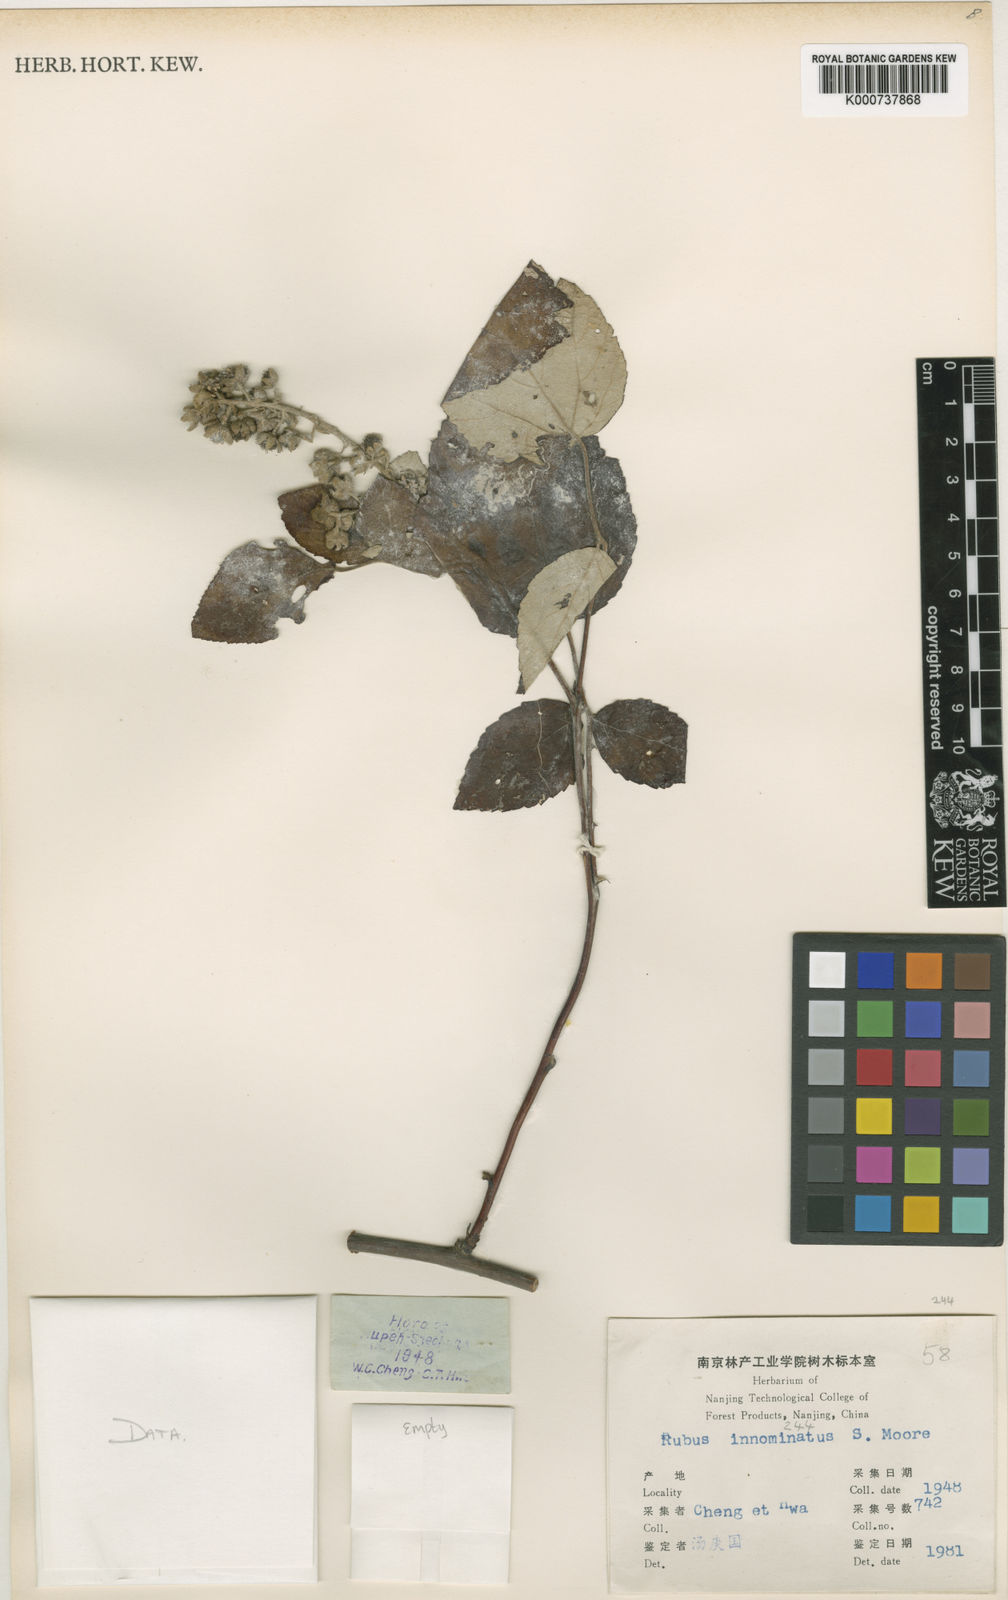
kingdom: Plantae
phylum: Tracheophyta
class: Magnoliopsida
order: Rosales
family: Rosaceae
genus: Rubus
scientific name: Rubus
